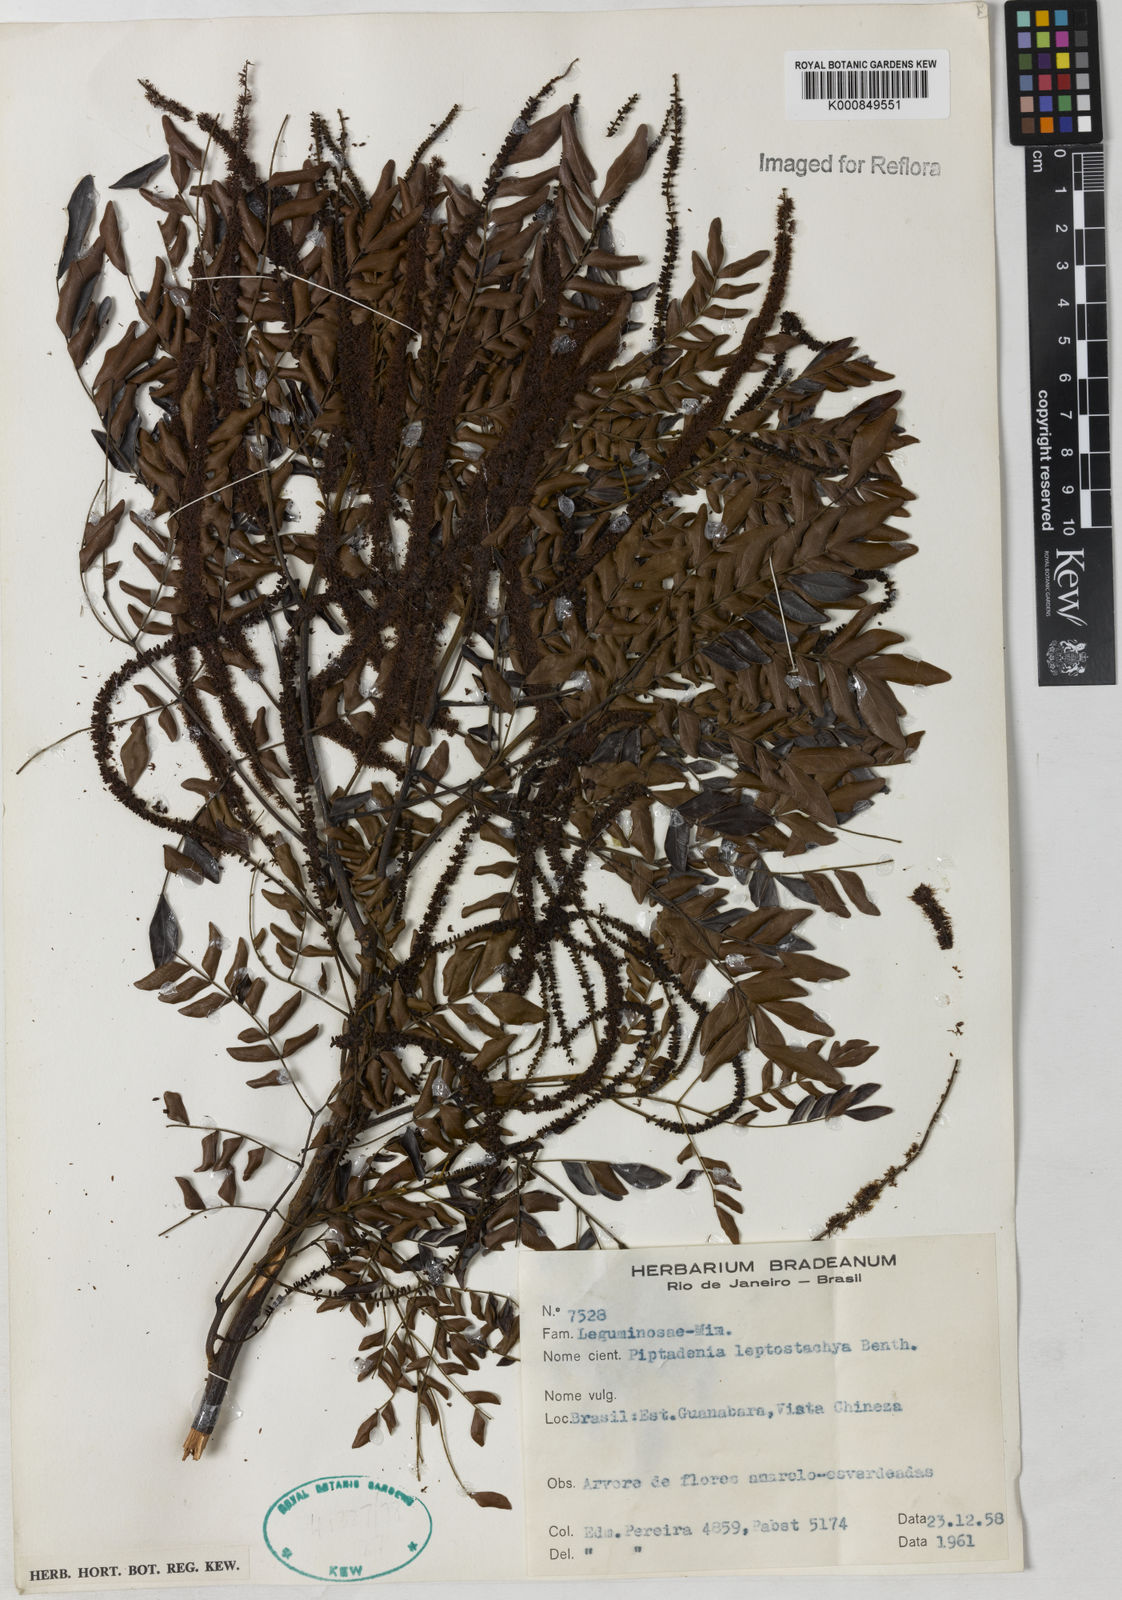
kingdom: Plantae
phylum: Tracheophyta
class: Magnoliopsida
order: Fabales
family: Fabaceae
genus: Pseudopiptadenia
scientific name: Pseudopiptadenia leptostachya
